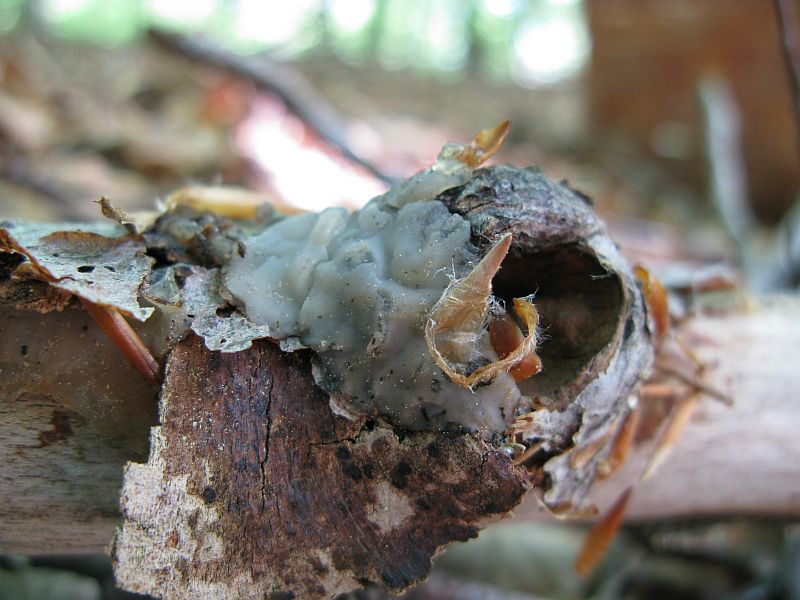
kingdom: Fungi
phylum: Basidiomycota
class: Agaricomycetes
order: Auriculariales
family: Auriculariaceae
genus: Exidia
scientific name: Exidia thuretiana
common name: hvidlig bævretop
